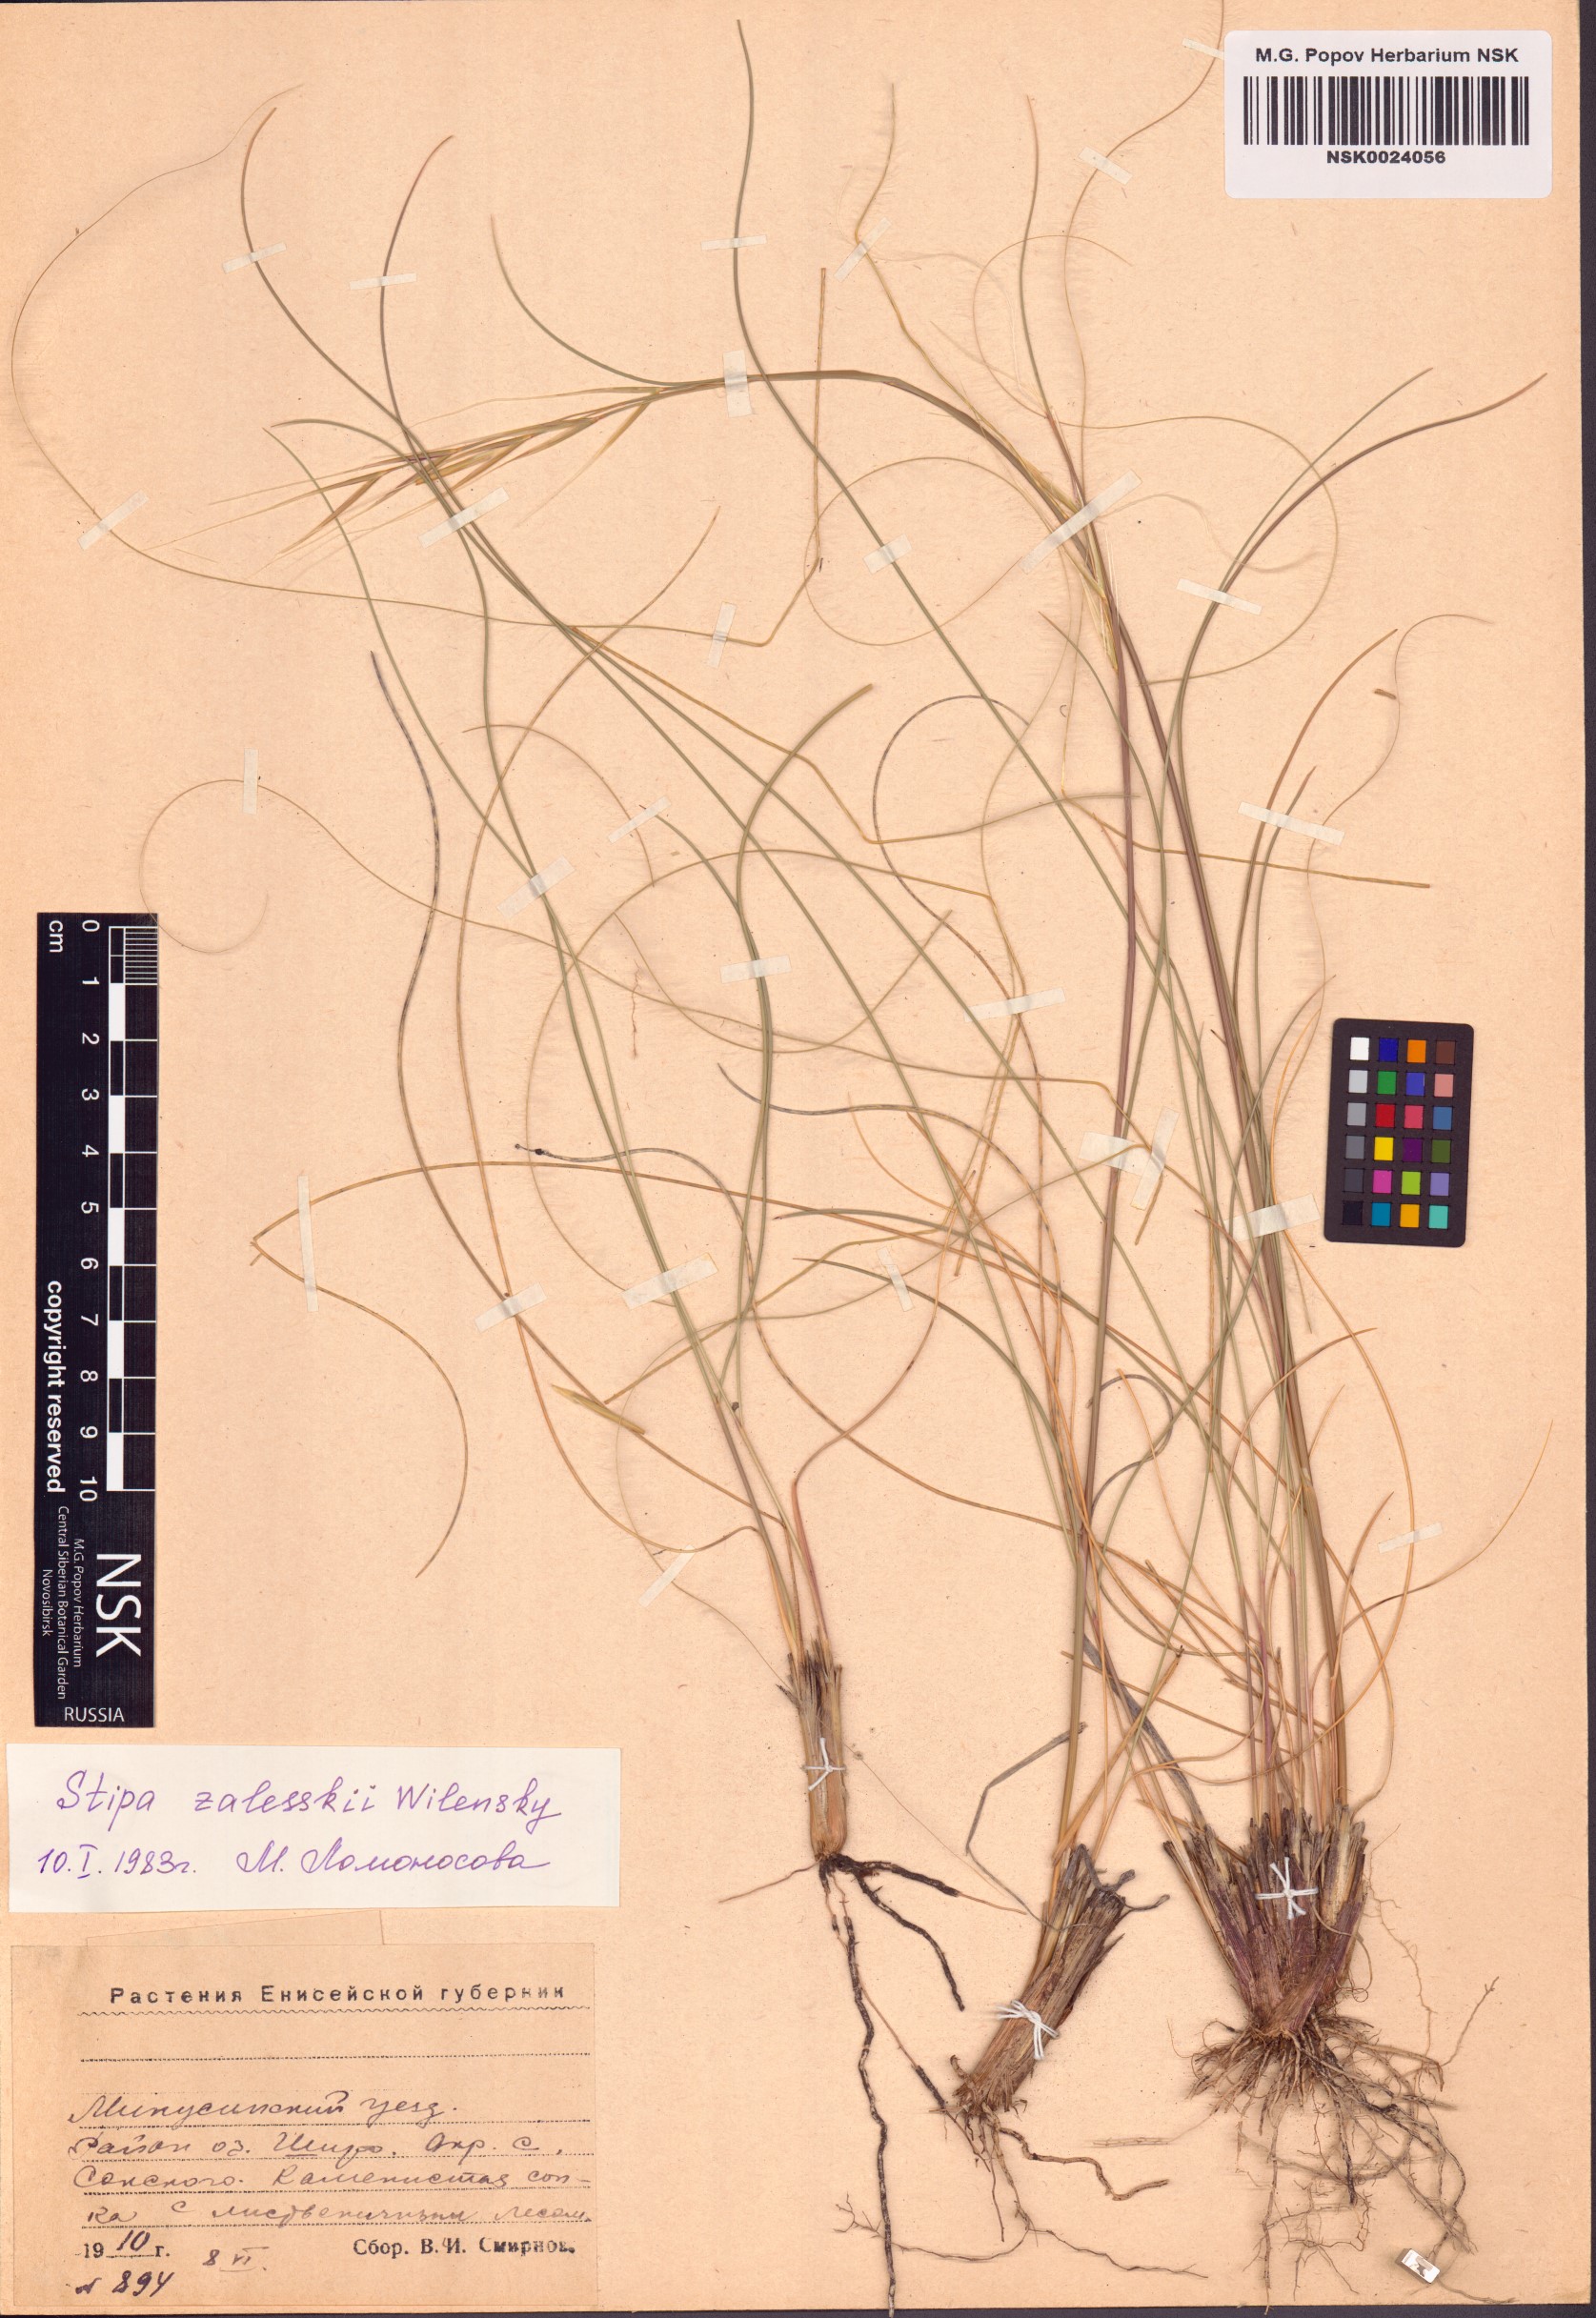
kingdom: Plantae
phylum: Tracheophyta
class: Liliopsida
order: Poales
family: Poaceae
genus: Stipa
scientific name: Stipa zalesskii
